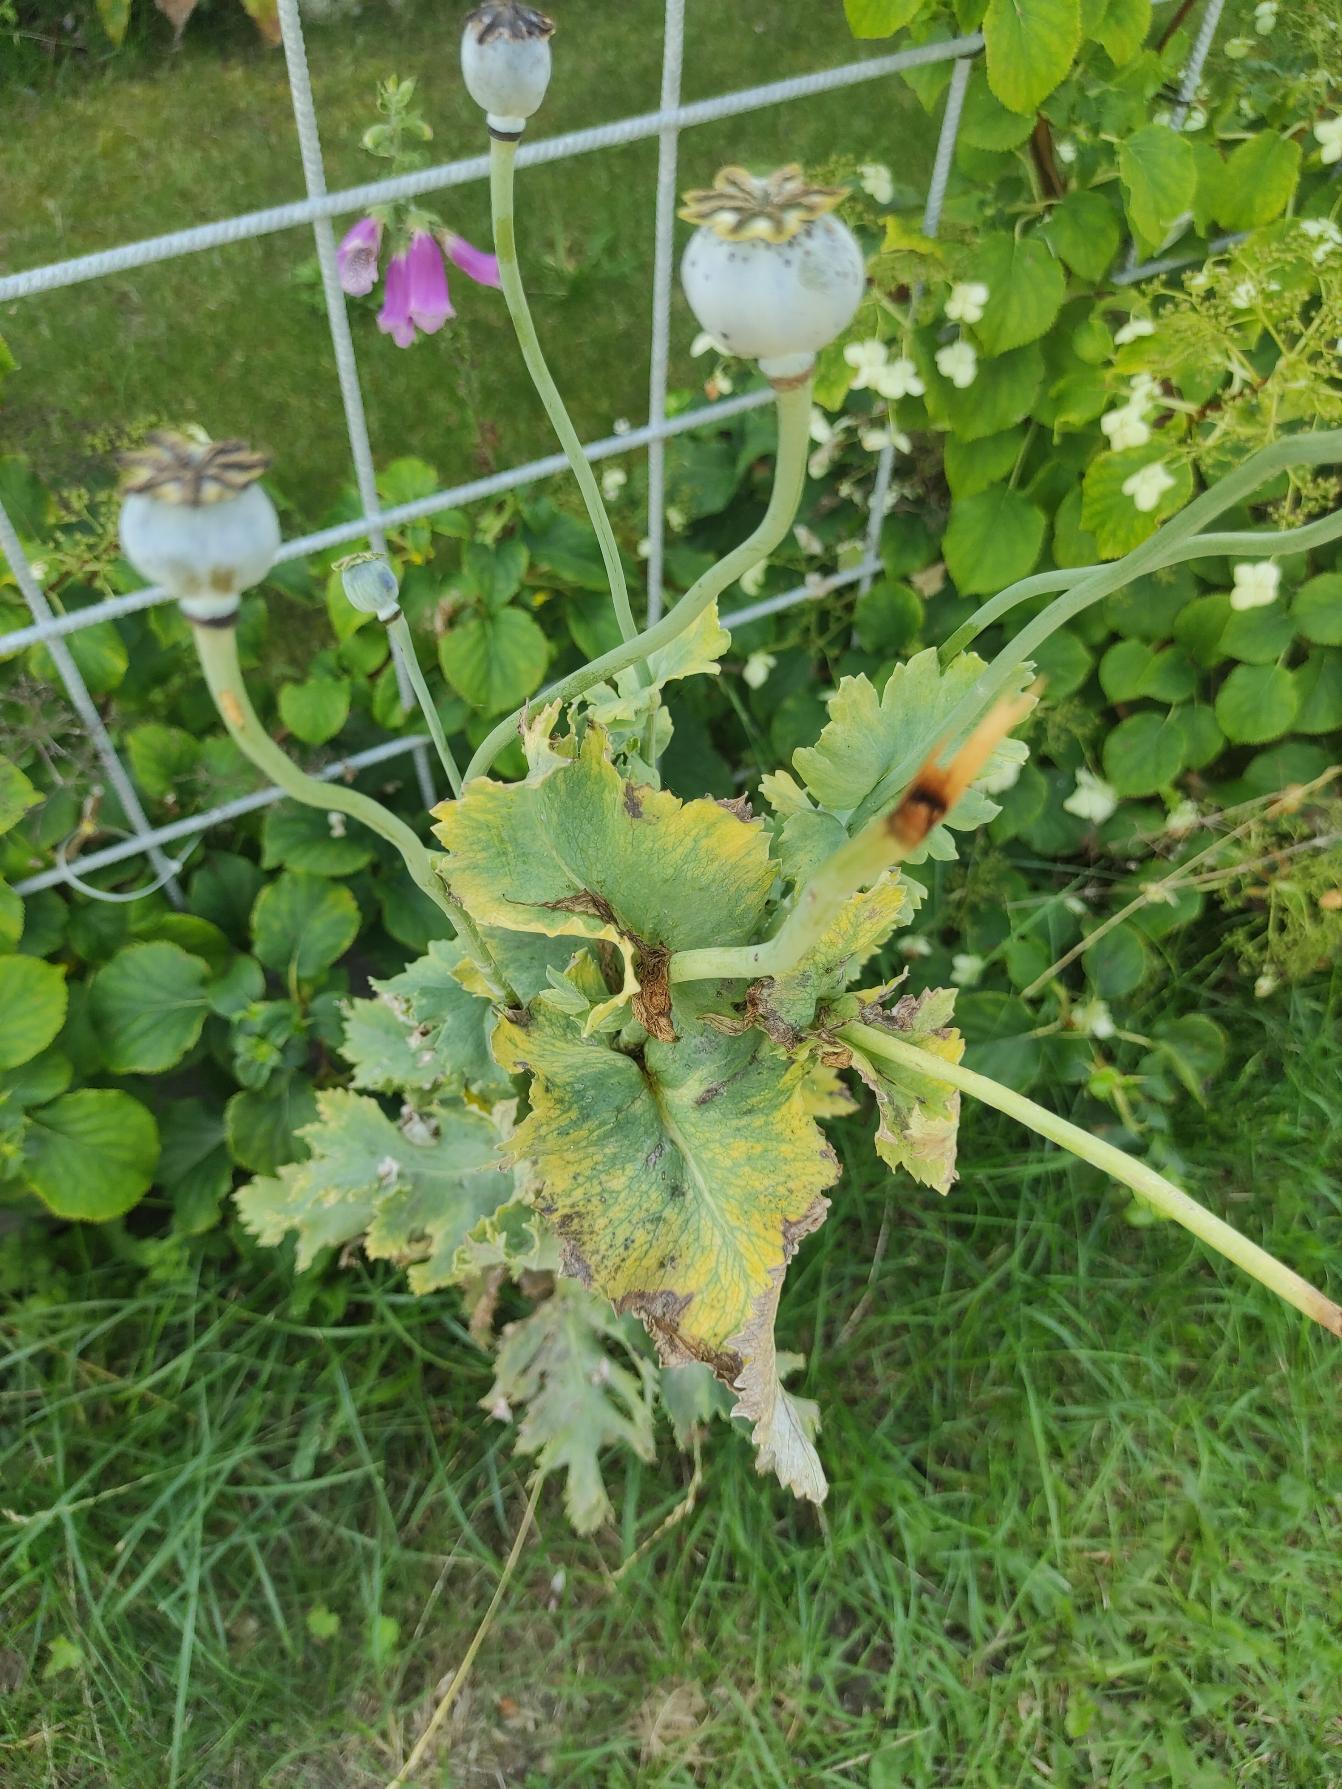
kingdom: Plantae
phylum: Tracheophyta
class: Magnoliopsida
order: Ranunculales
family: Papaveraceae
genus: Papaver
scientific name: Papaver somniferum
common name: Opium-valmue
